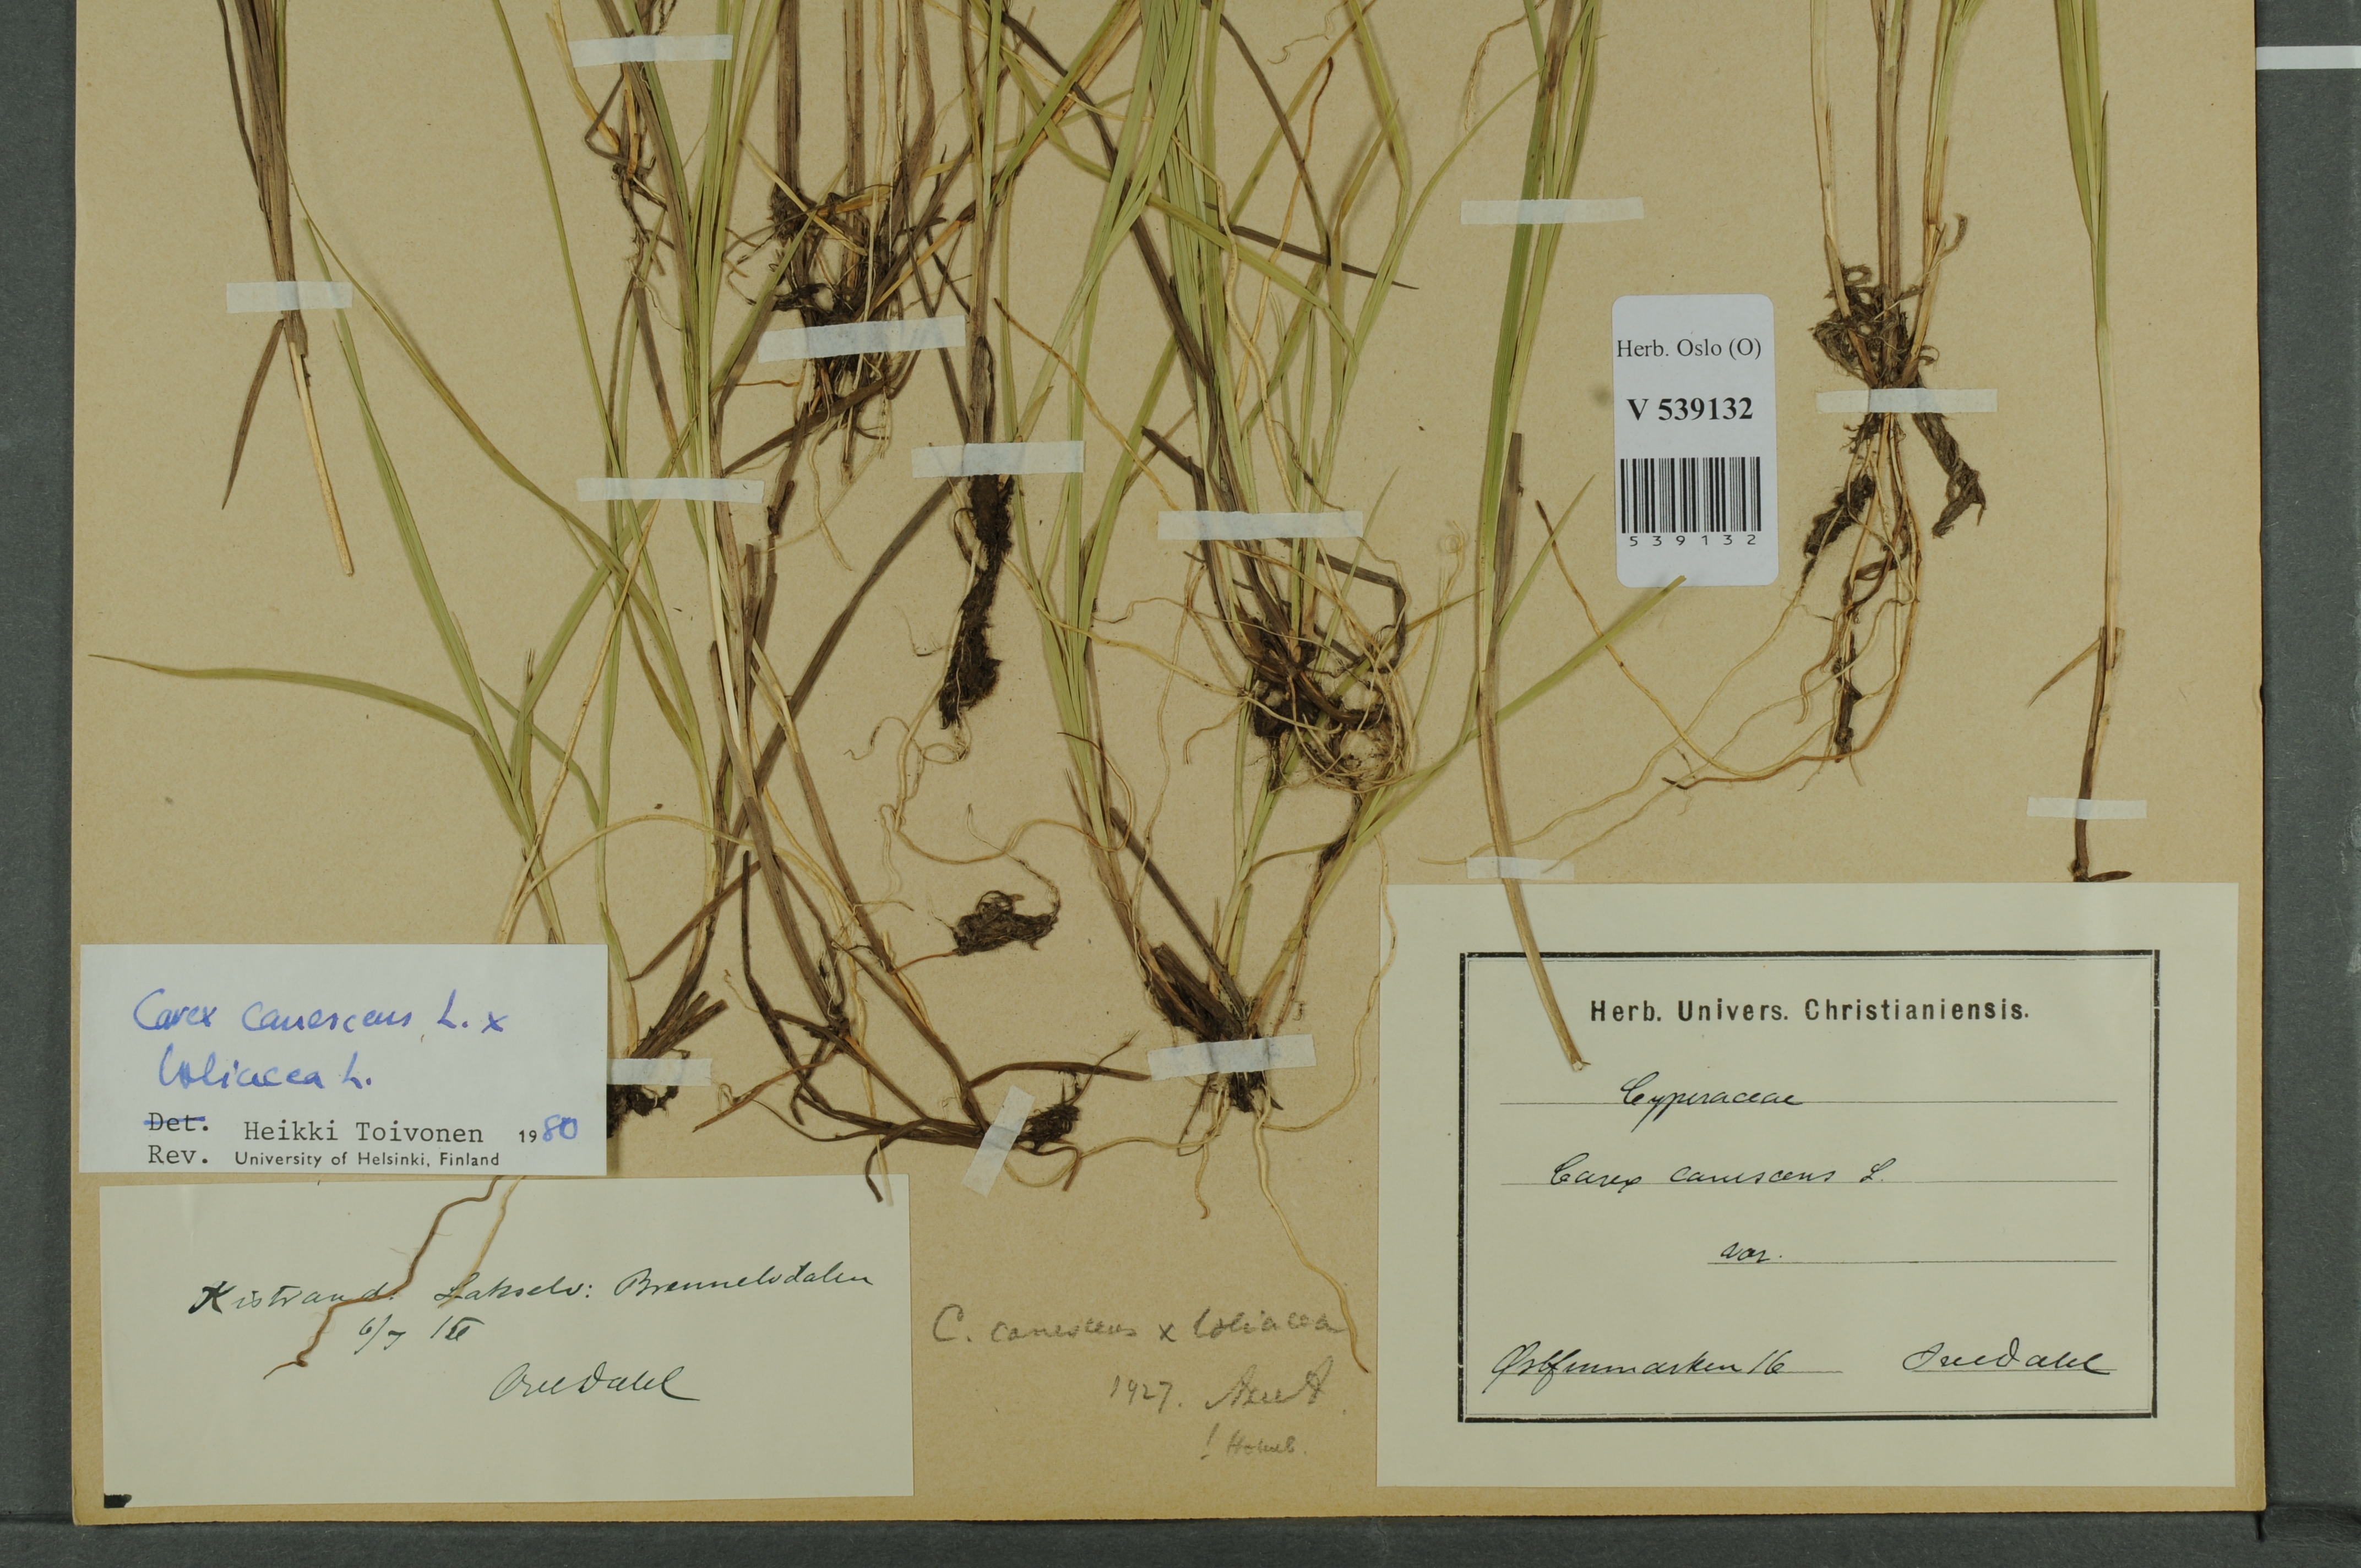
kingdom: Plantae
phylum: Tracheophyta
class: Liliopsida
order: Poales
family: Cyperaceae
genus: Carex
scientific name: Carex
